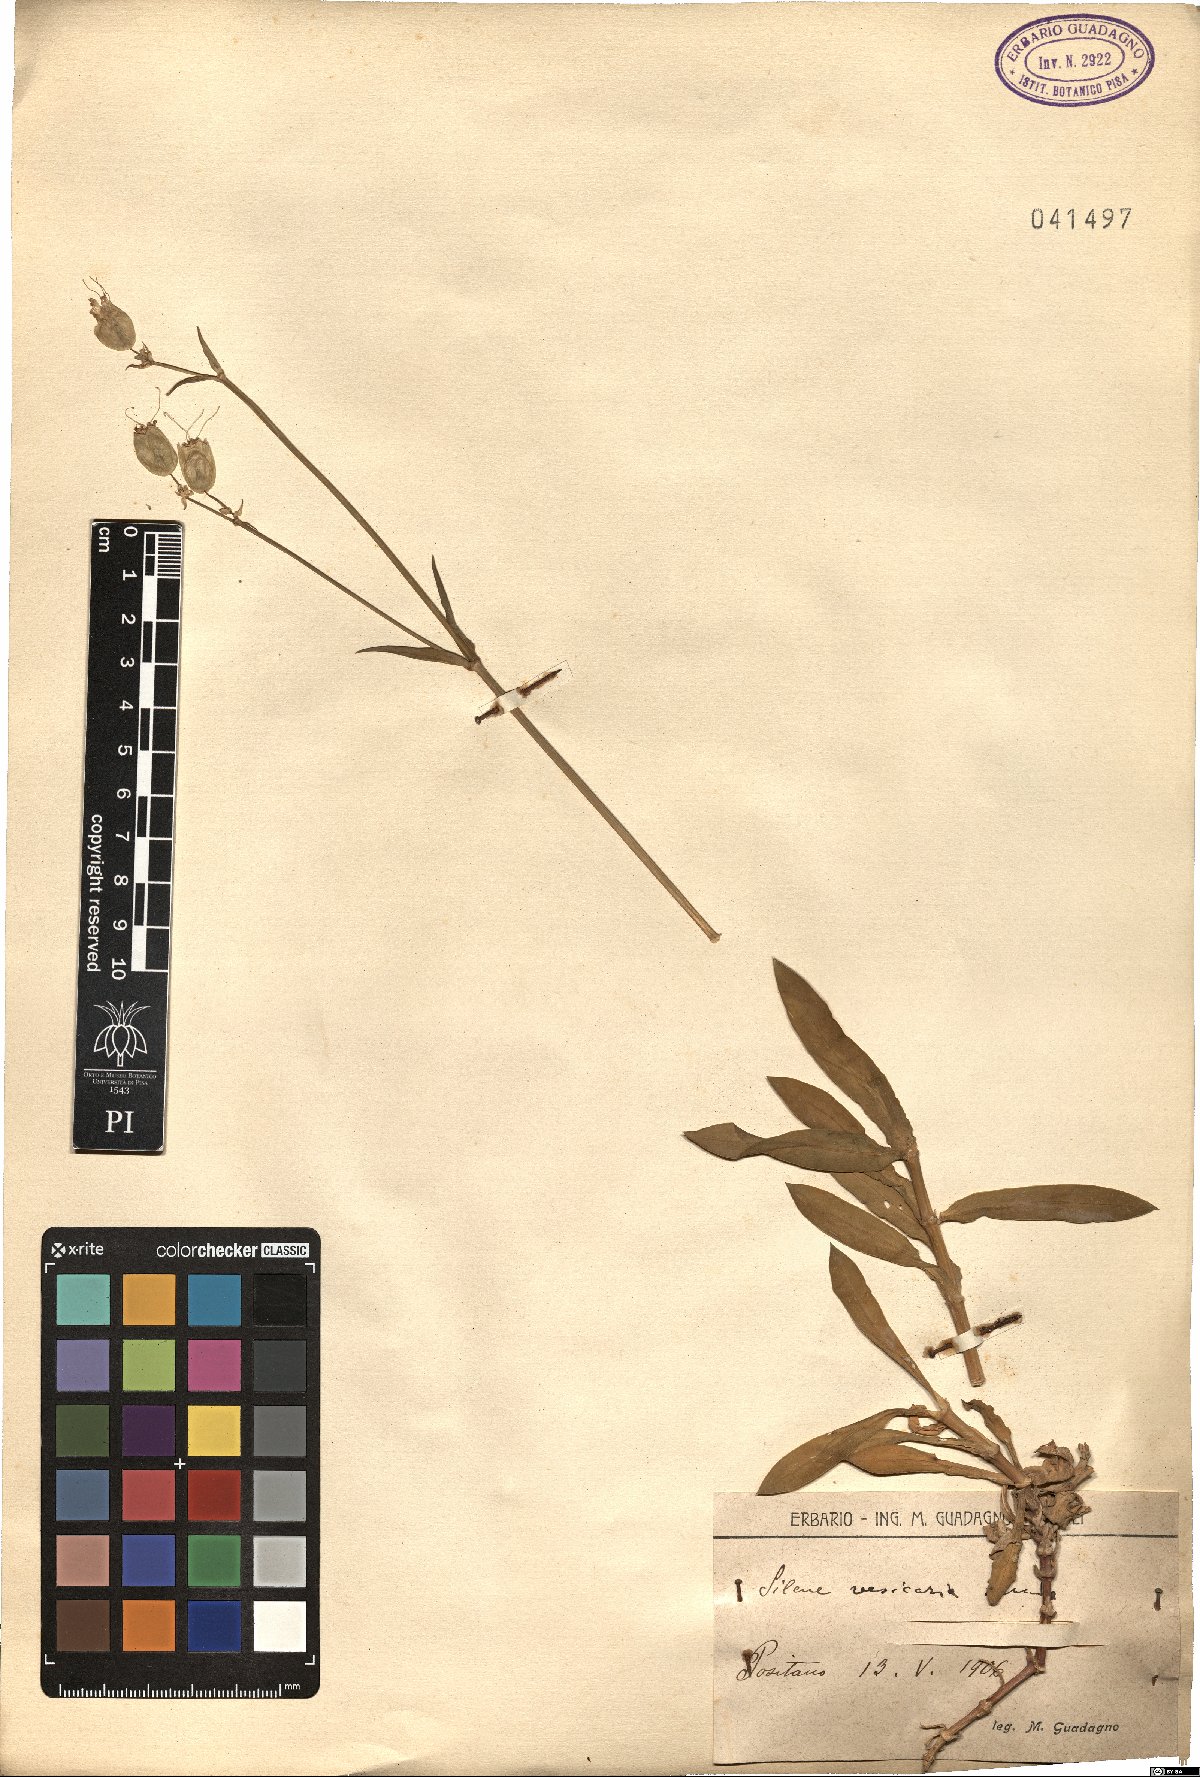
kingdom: Plantae
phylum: Tracheophyta
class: Magnoliopsida
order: Caryophyllales
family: Caryophyllaceae
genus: Silene
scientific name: Silene vulgaris
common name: Bladder campion
